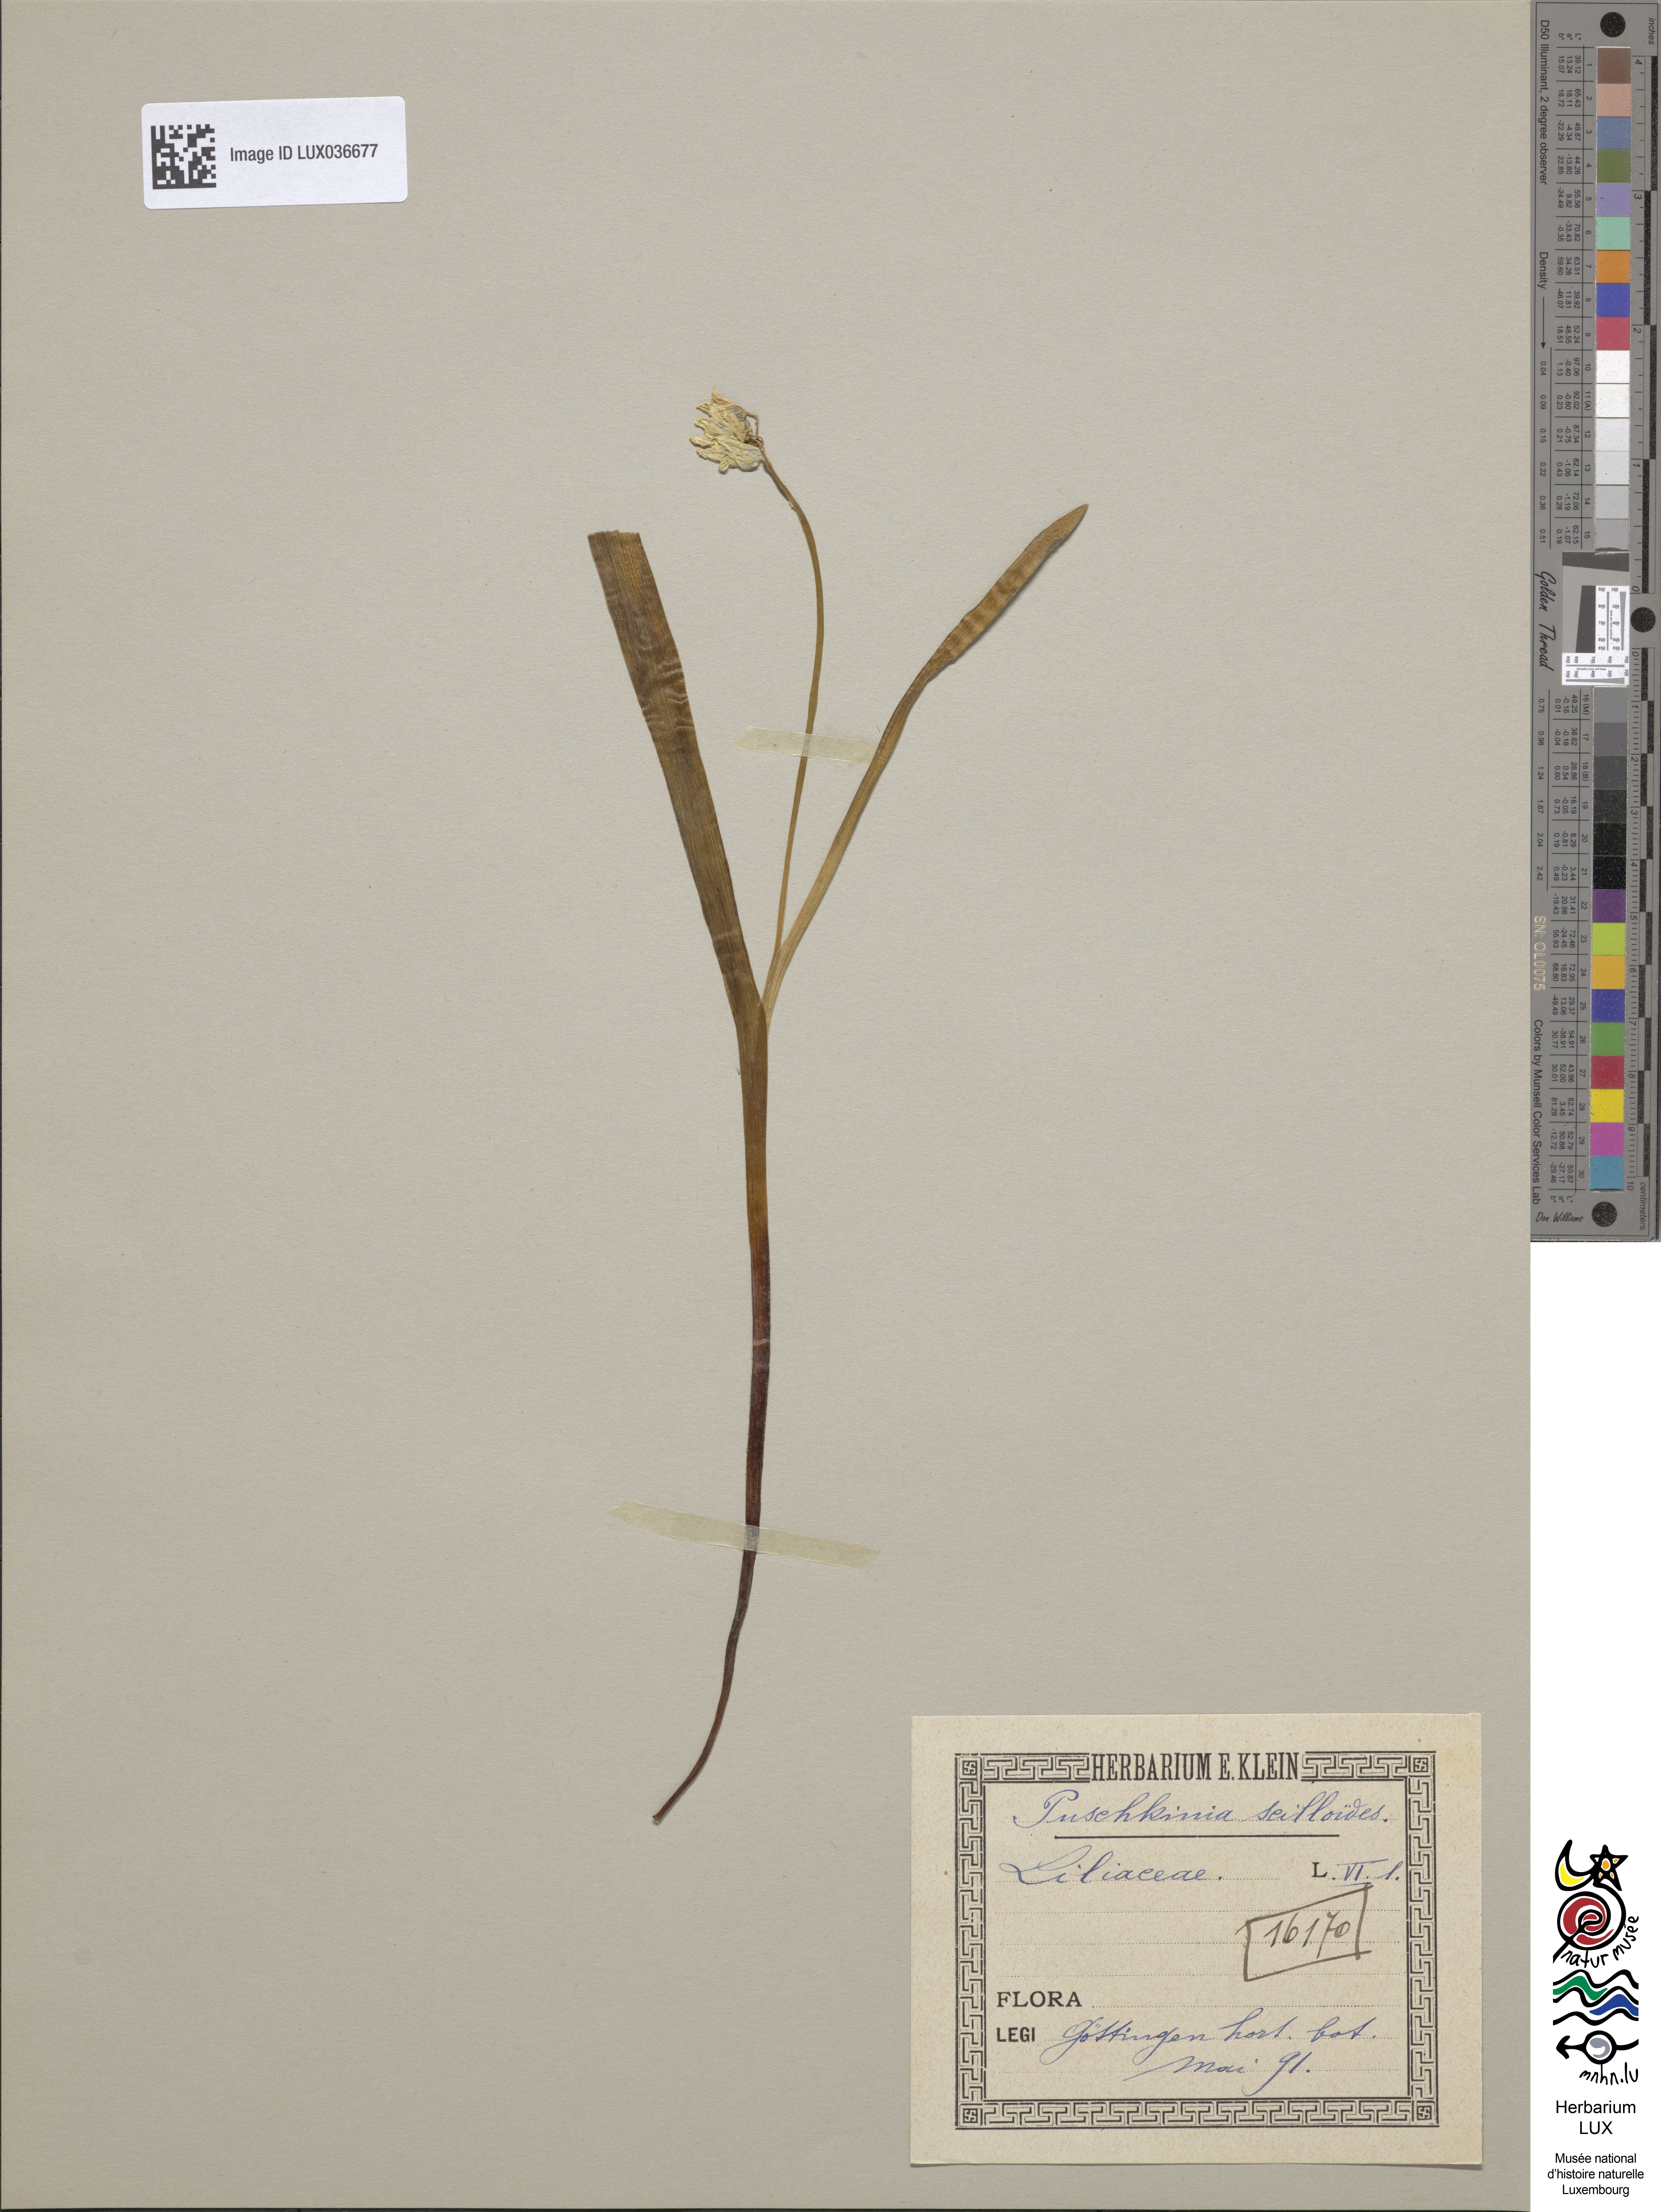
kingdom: Plantae
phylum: Tracheophyta
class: Liliopsida
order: Asparagales
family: Asparagaceae
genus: Puschkinia
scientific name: Puschkinia scilloides
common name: Striped squill
